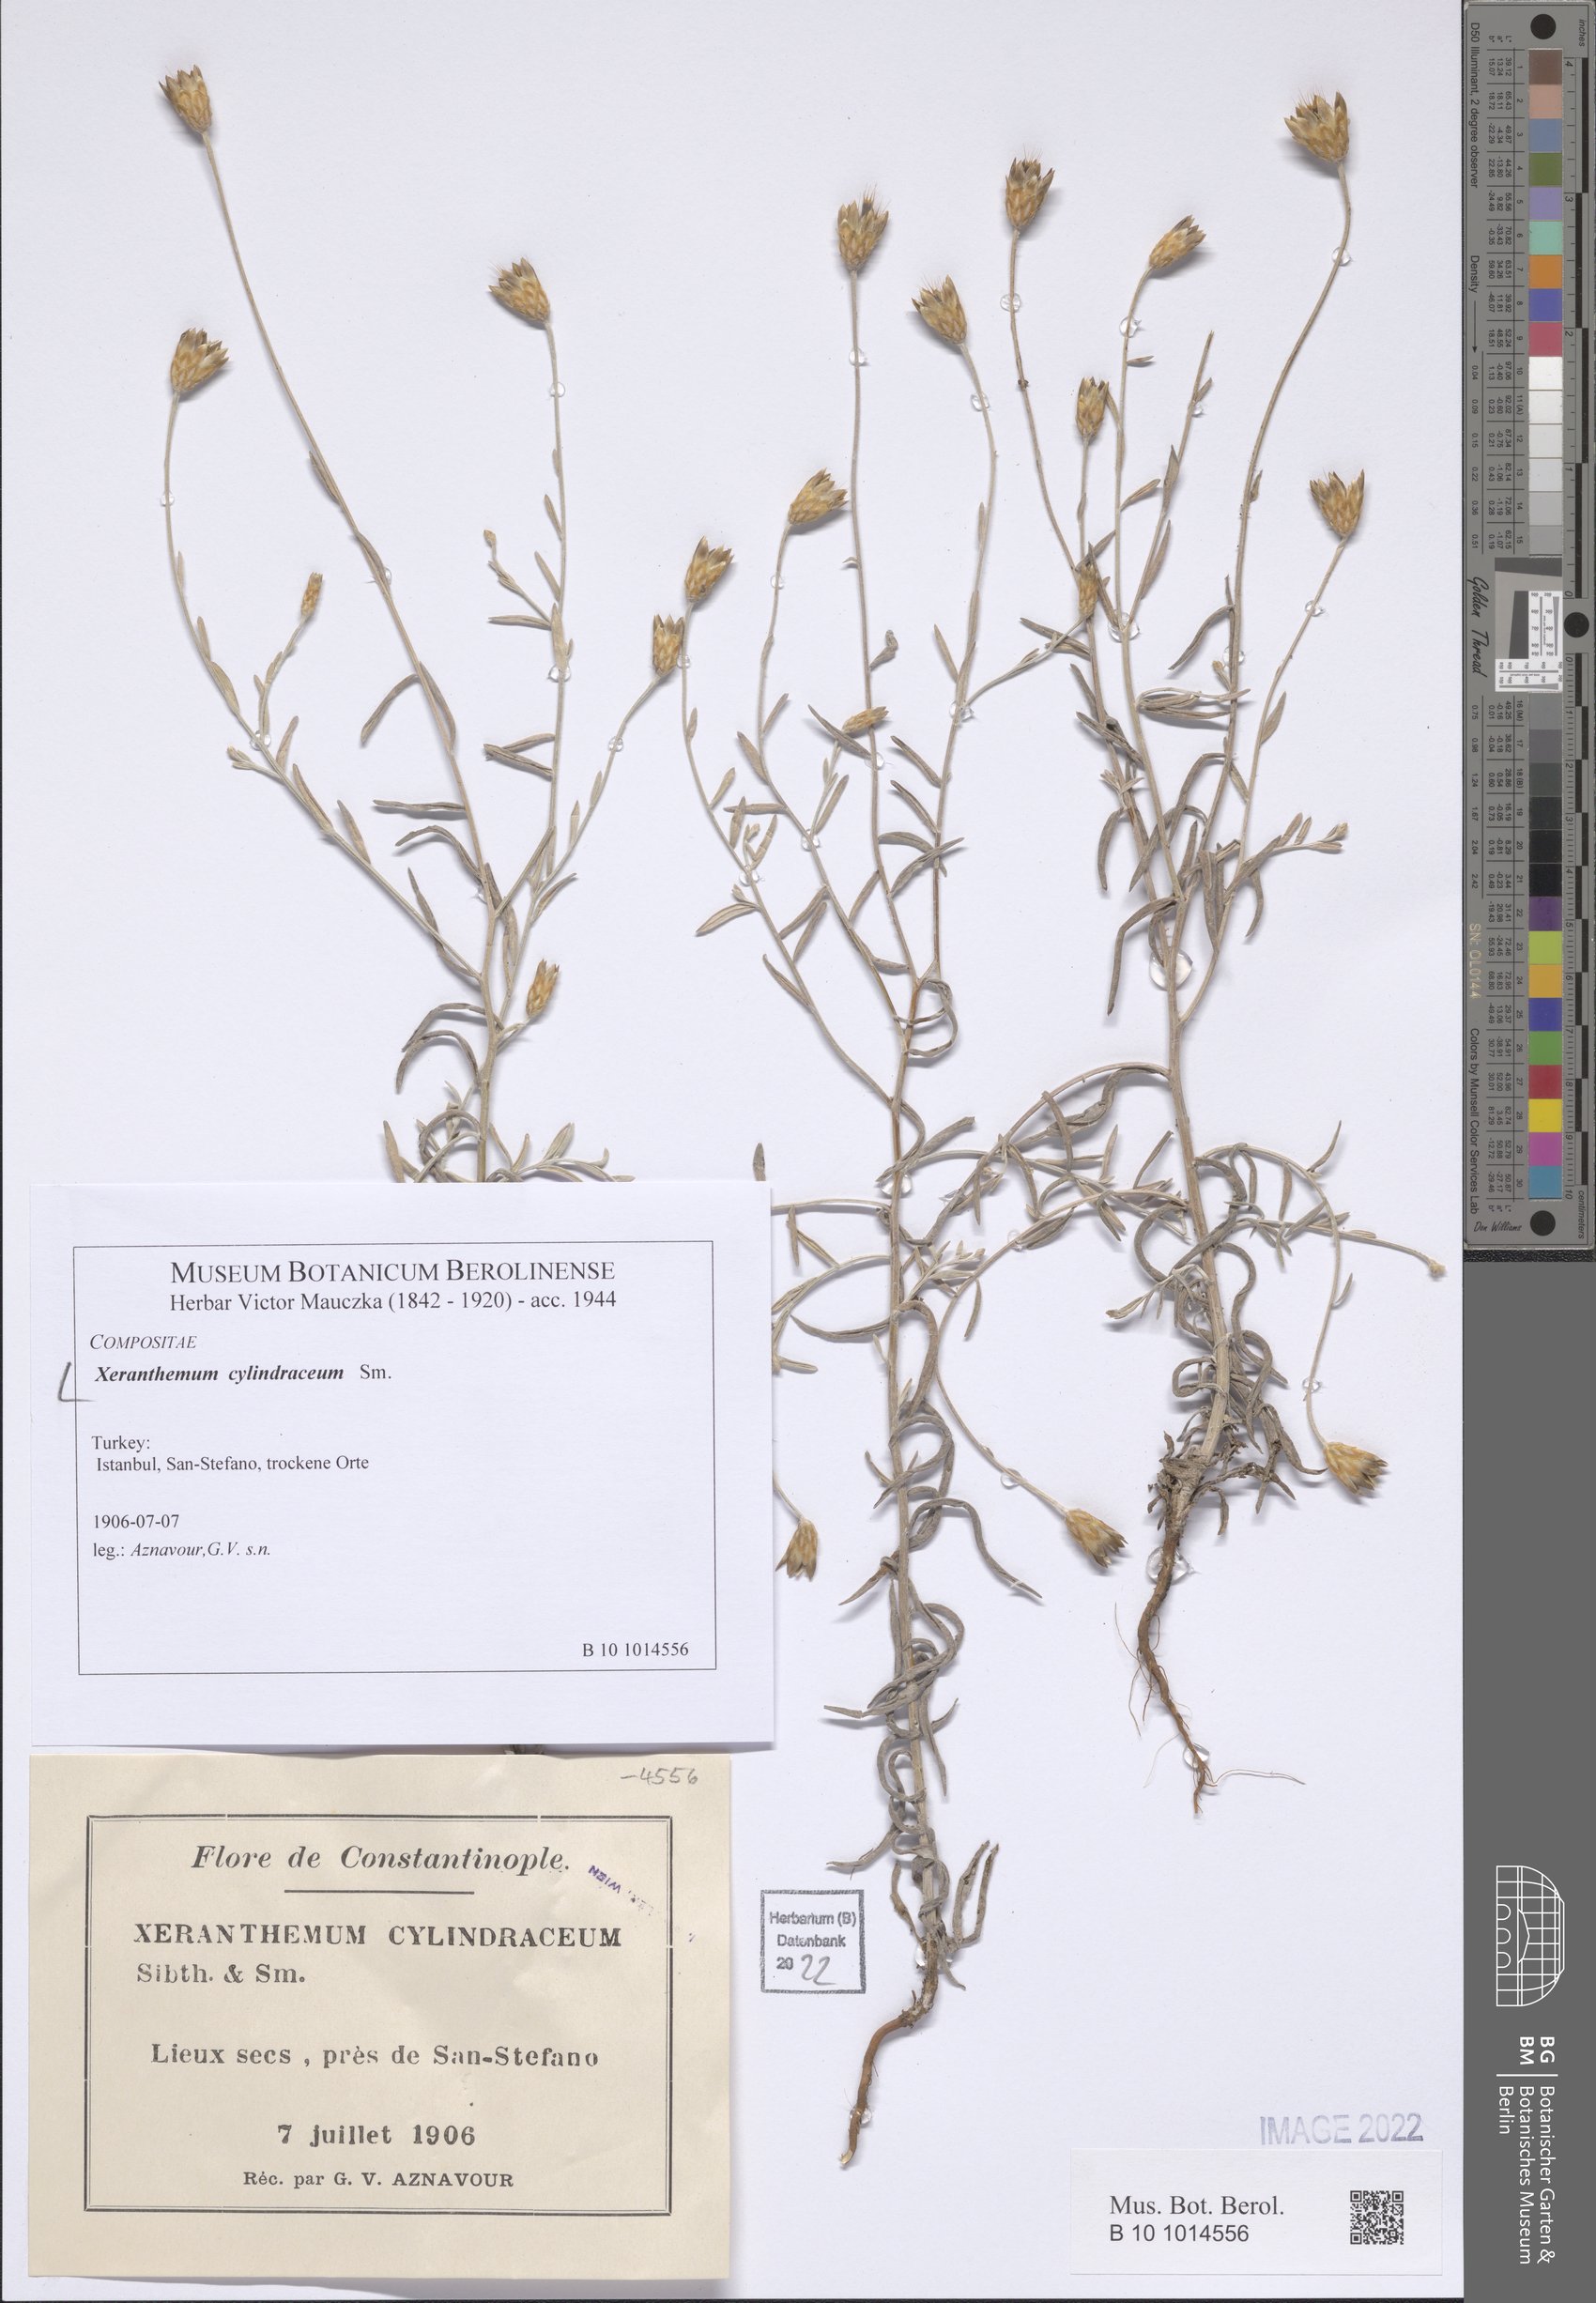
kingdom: Plantae
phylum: Tracheophyta
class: Magnoliopsida
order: Asterales
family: Asteraceae
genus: Xeranthemum
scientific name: Xeranthemum cylindraceum
